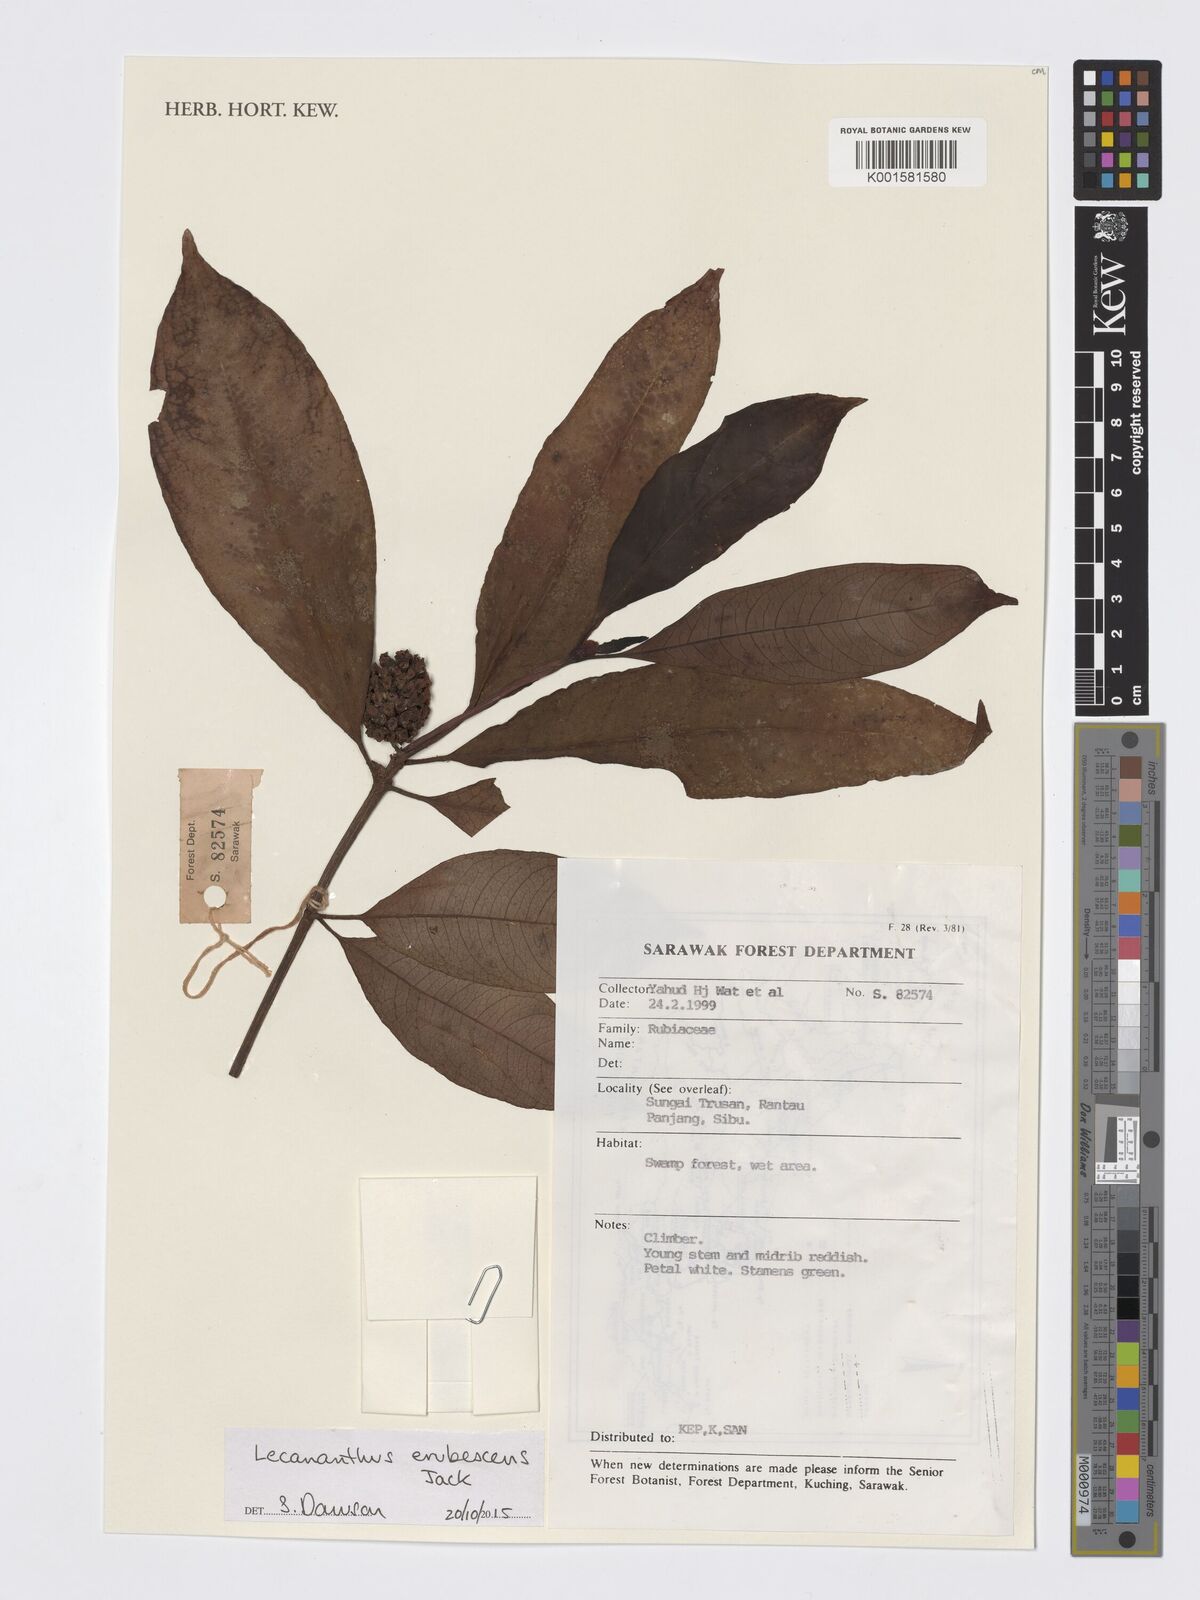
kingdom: Plantae
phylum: Tracheophyta
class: Magnoliopsida
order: Gentianales
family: Rubiaceae
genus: Lecananthus
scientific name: Lecananthus erubescens
